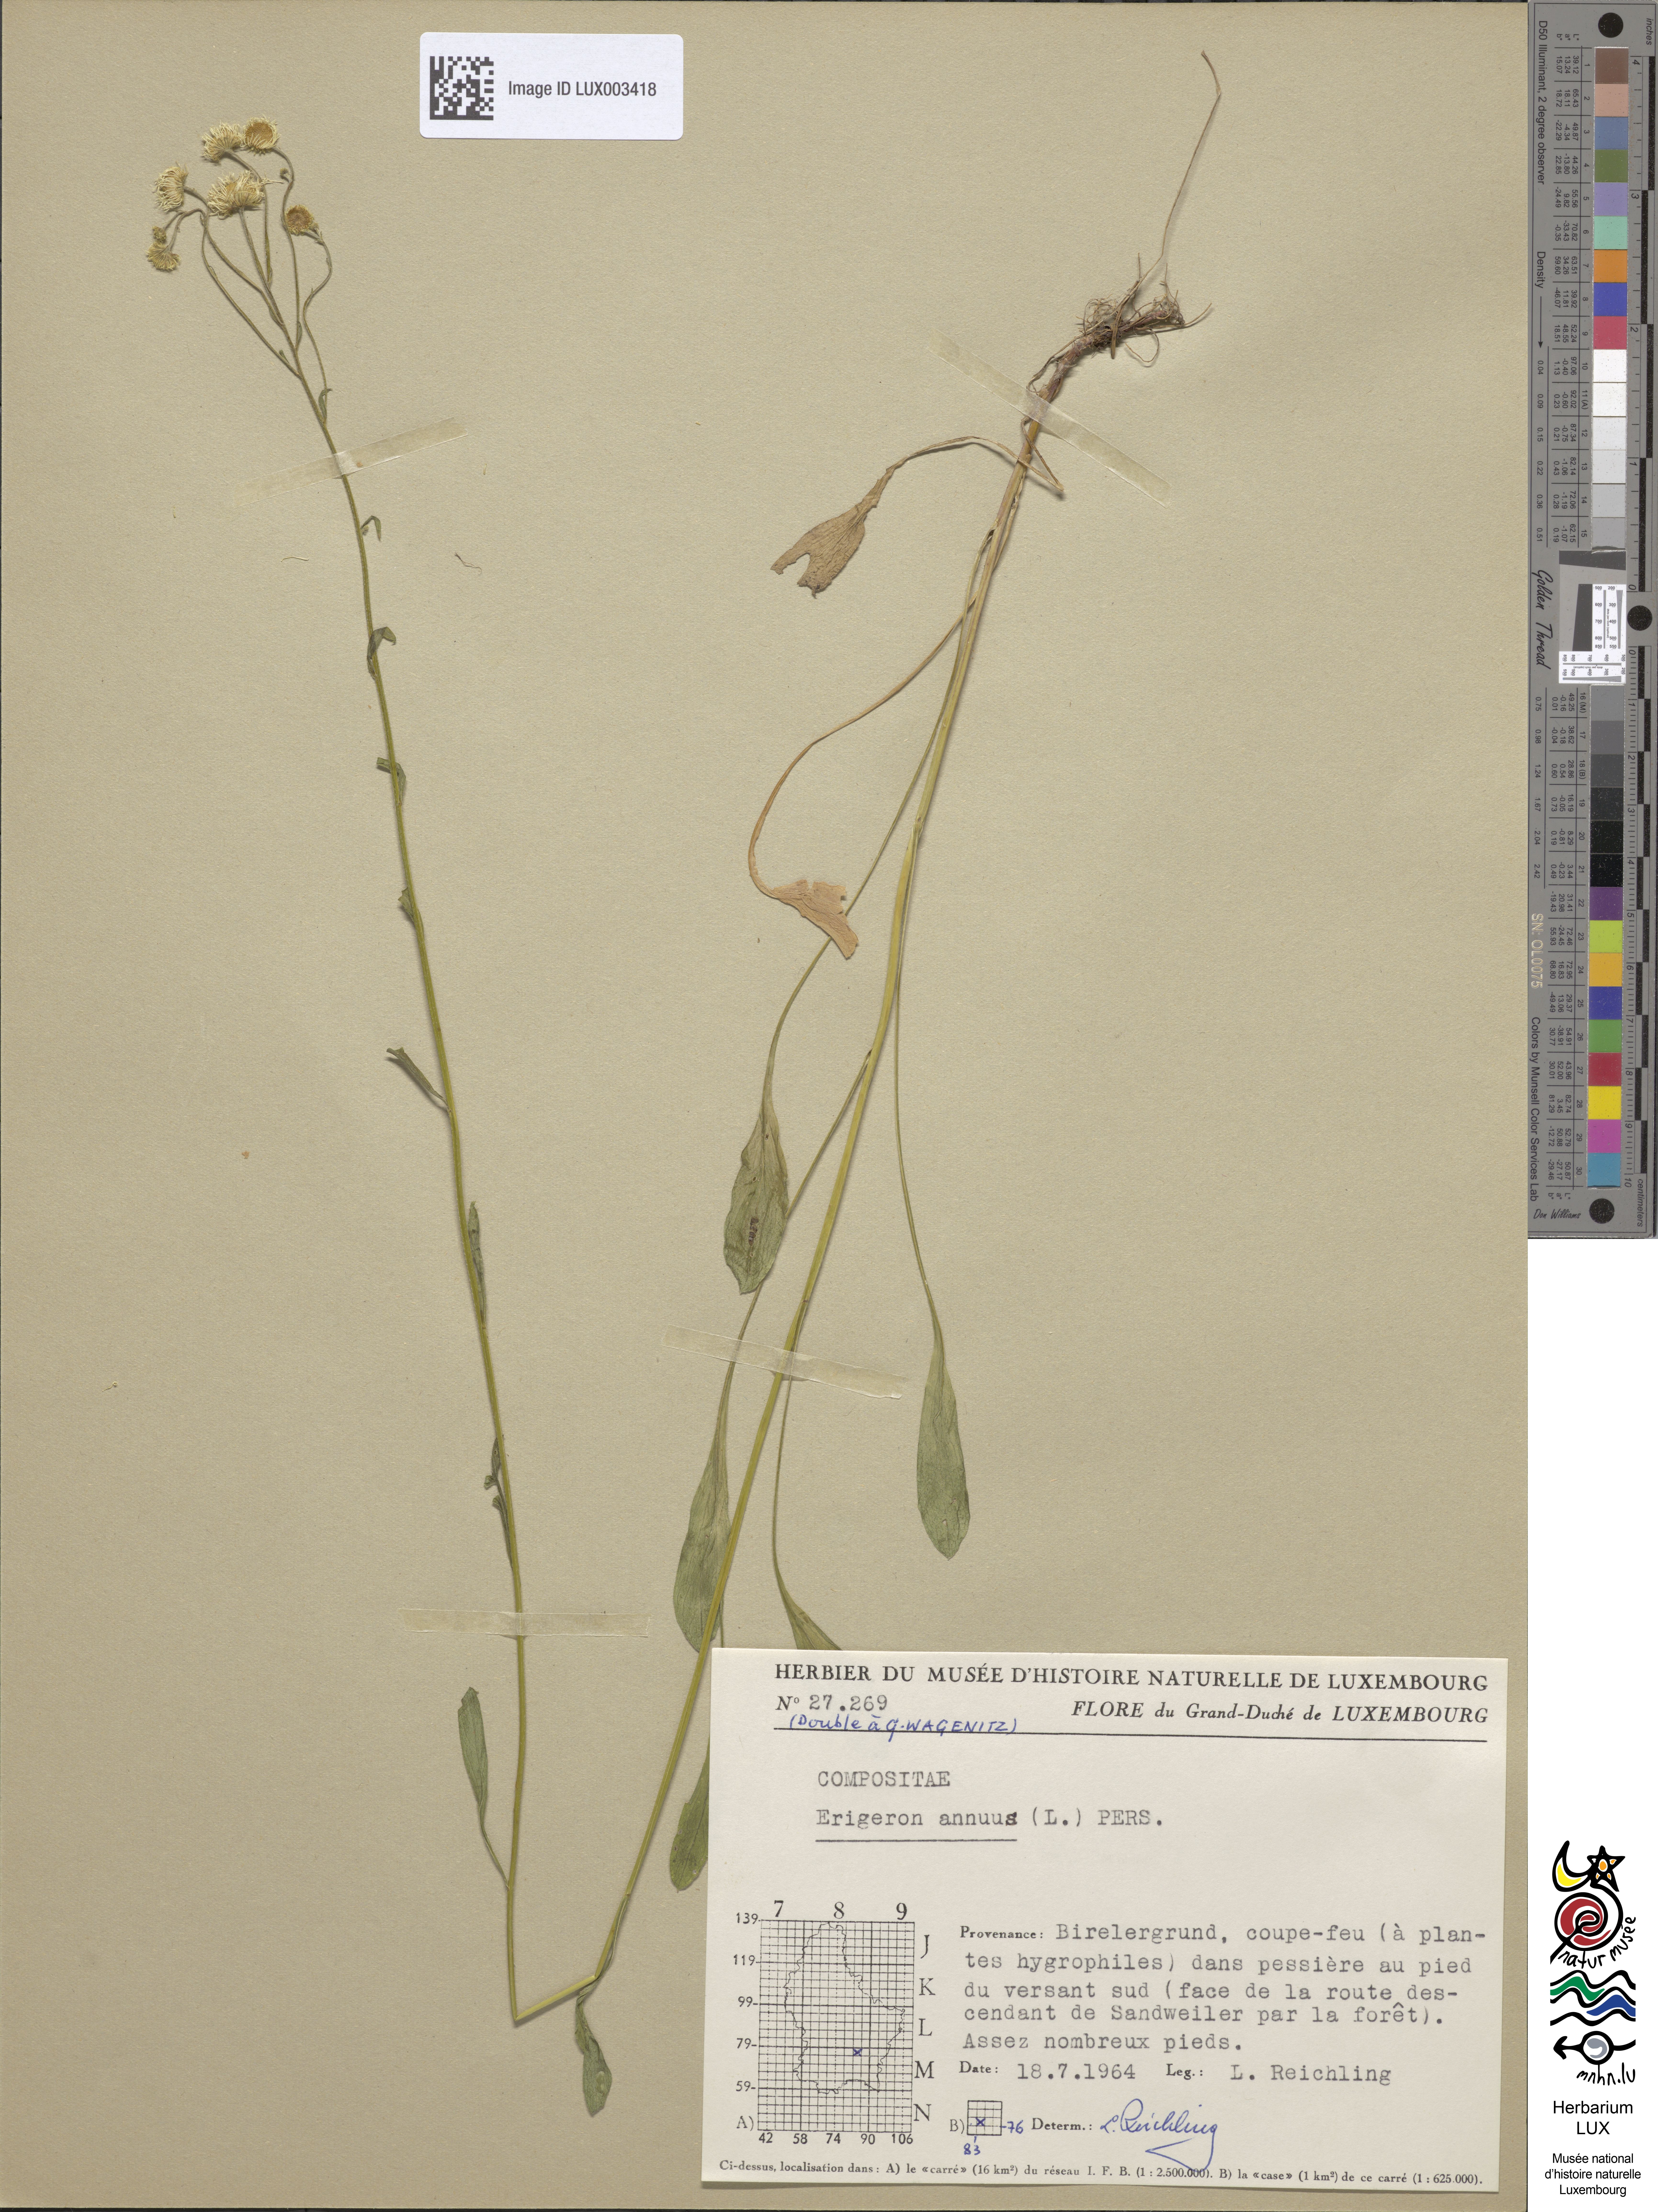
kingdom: Plantae
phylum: Tracheophyta
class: Magnoliopsida
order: Asterales
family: Asteraceae
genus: Erigeron
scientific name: Erigeron annuus
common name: Tall fleabane
